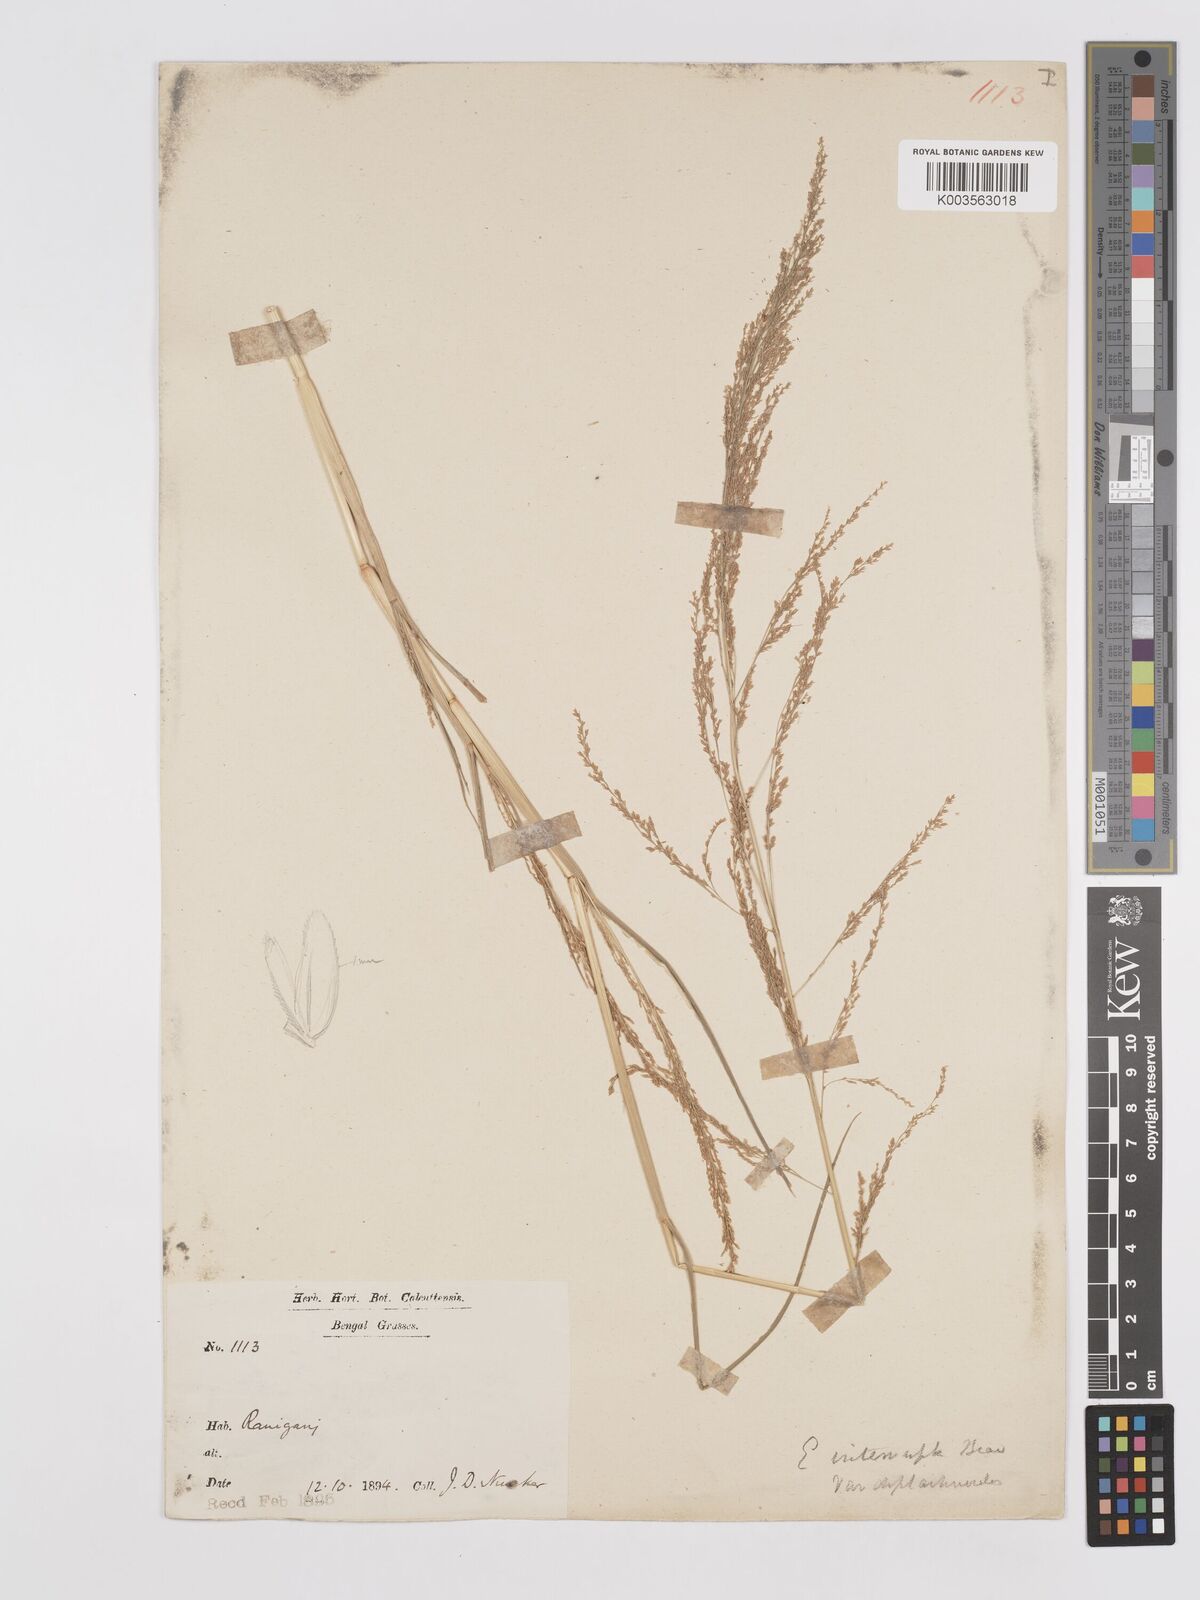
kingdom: Plantae
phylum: Tracheophyta
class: Liliopsida
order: Poales
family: Poaceae
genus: Eragrostis
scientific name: Eragrostis japonica
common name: Pond lovegrass
